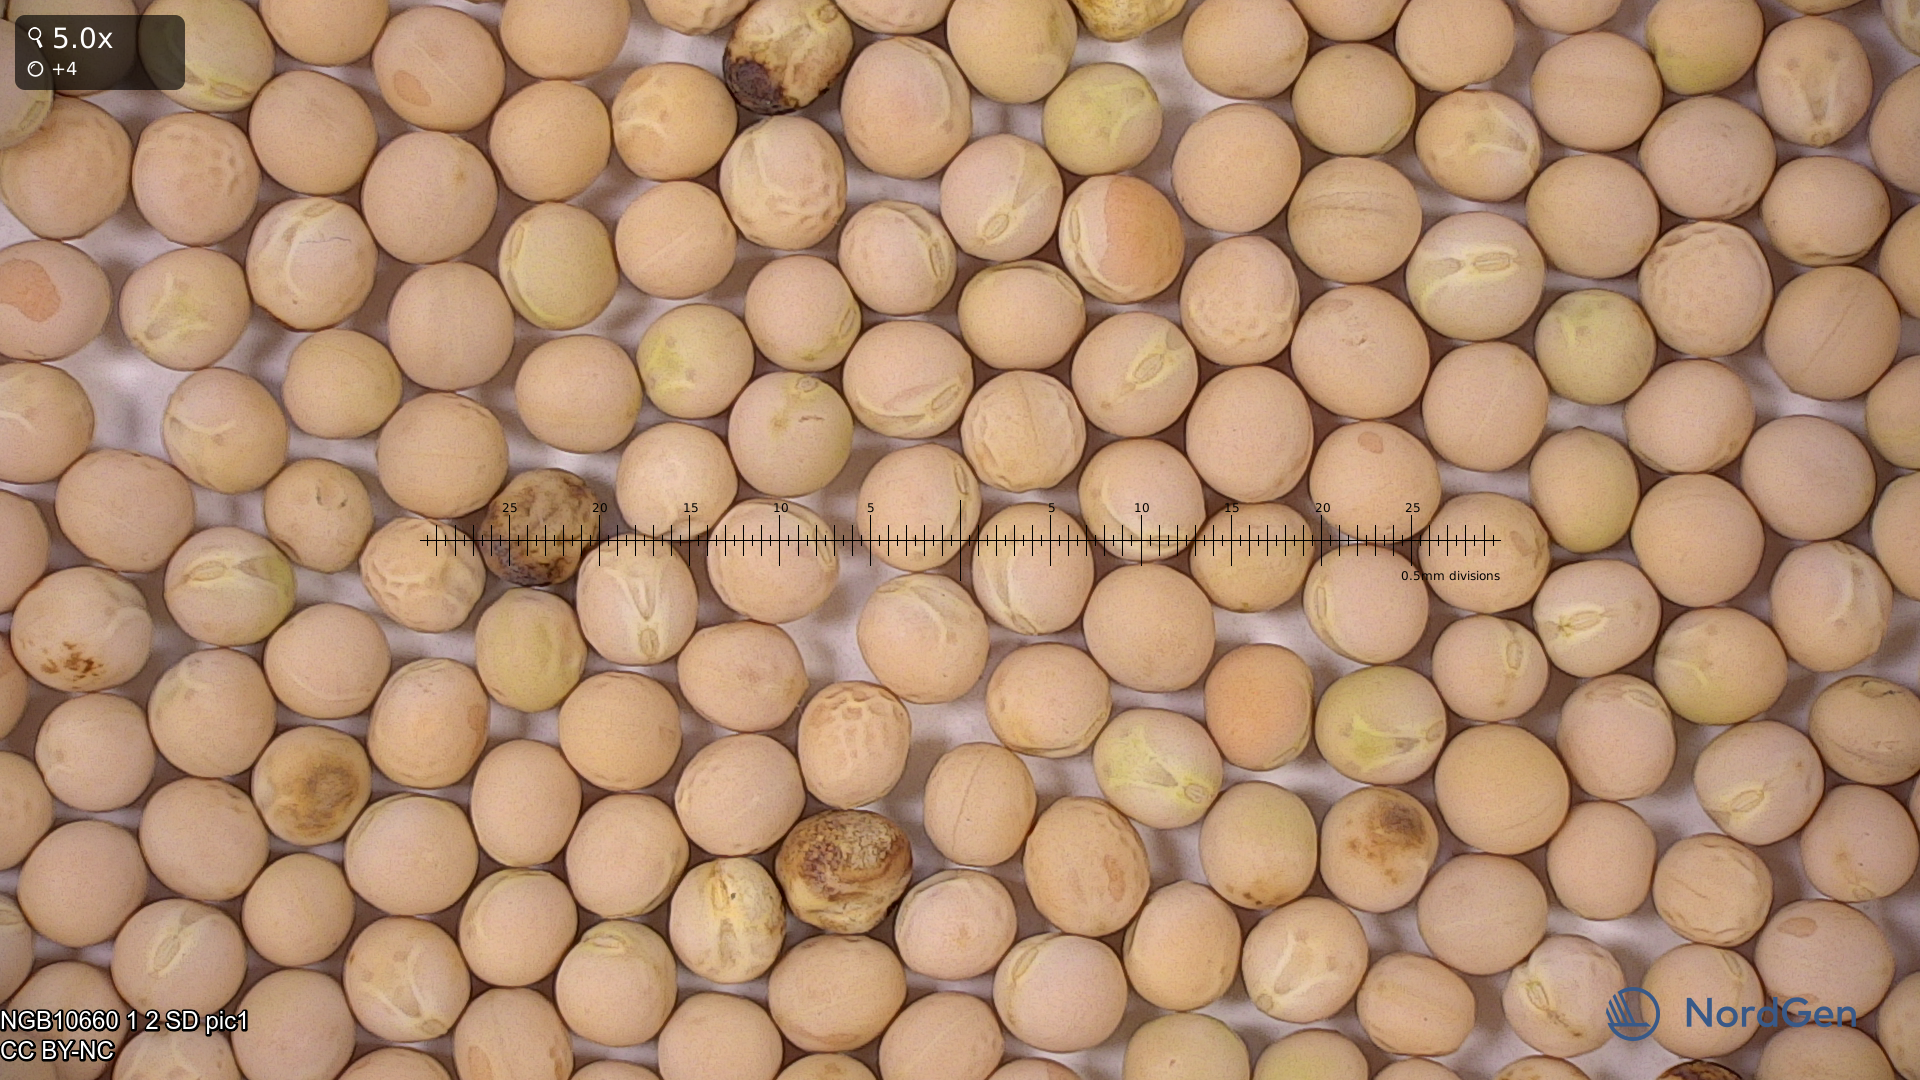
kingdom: Plantae
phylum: Tracheophyta
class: Magnoliopsida
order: Fabales
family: Fabaceae
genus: Lathyrus
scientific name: Lathyrus oleraceus
